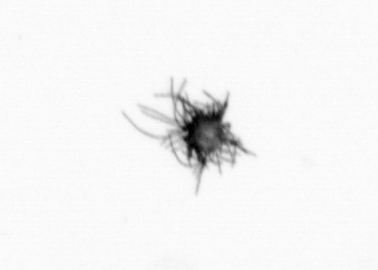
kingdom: Bacteria
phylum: Cyanobacteria
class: Cyanobacteriia
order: Cyanobacteriales
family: Microcoleaceae
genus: Trichodesmium
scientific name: Trichodesmium
